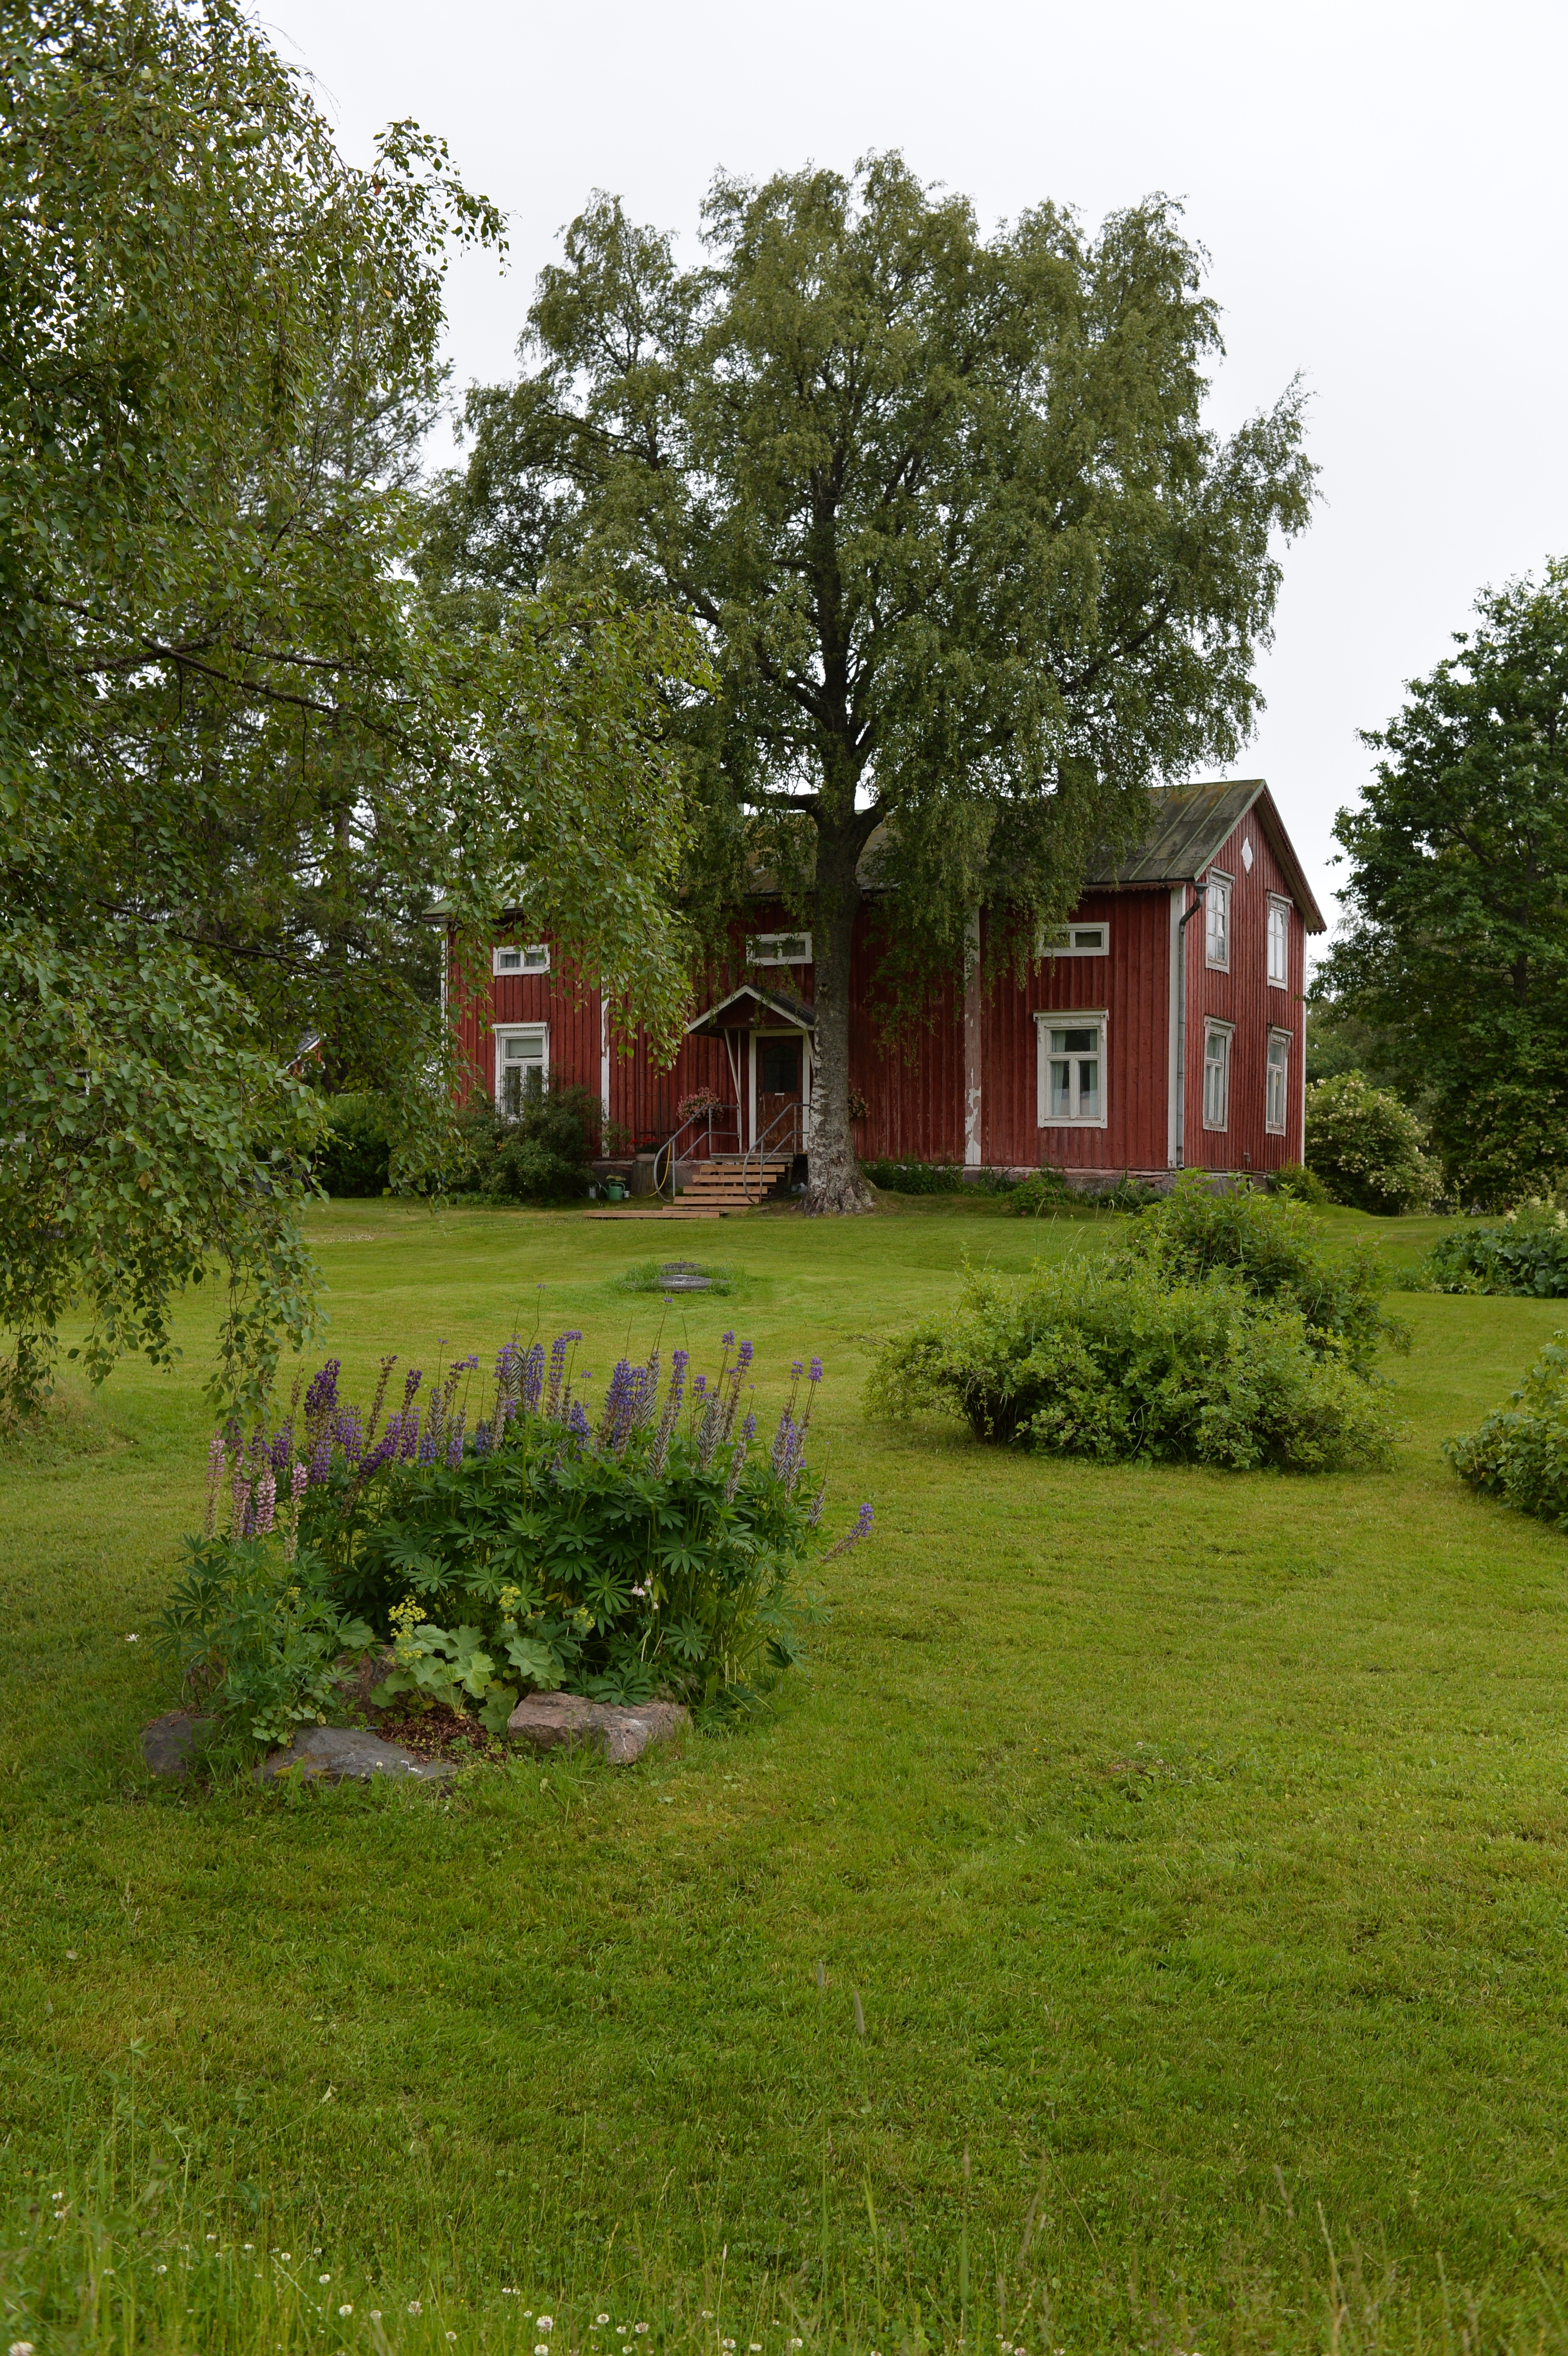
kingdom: Plantae
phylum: Tracheophyta
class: Magnoliopsida
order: Fabales
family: Fabaceae
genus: Lupinus
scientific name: Lupinus polyphyllus
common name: Garden lupin
